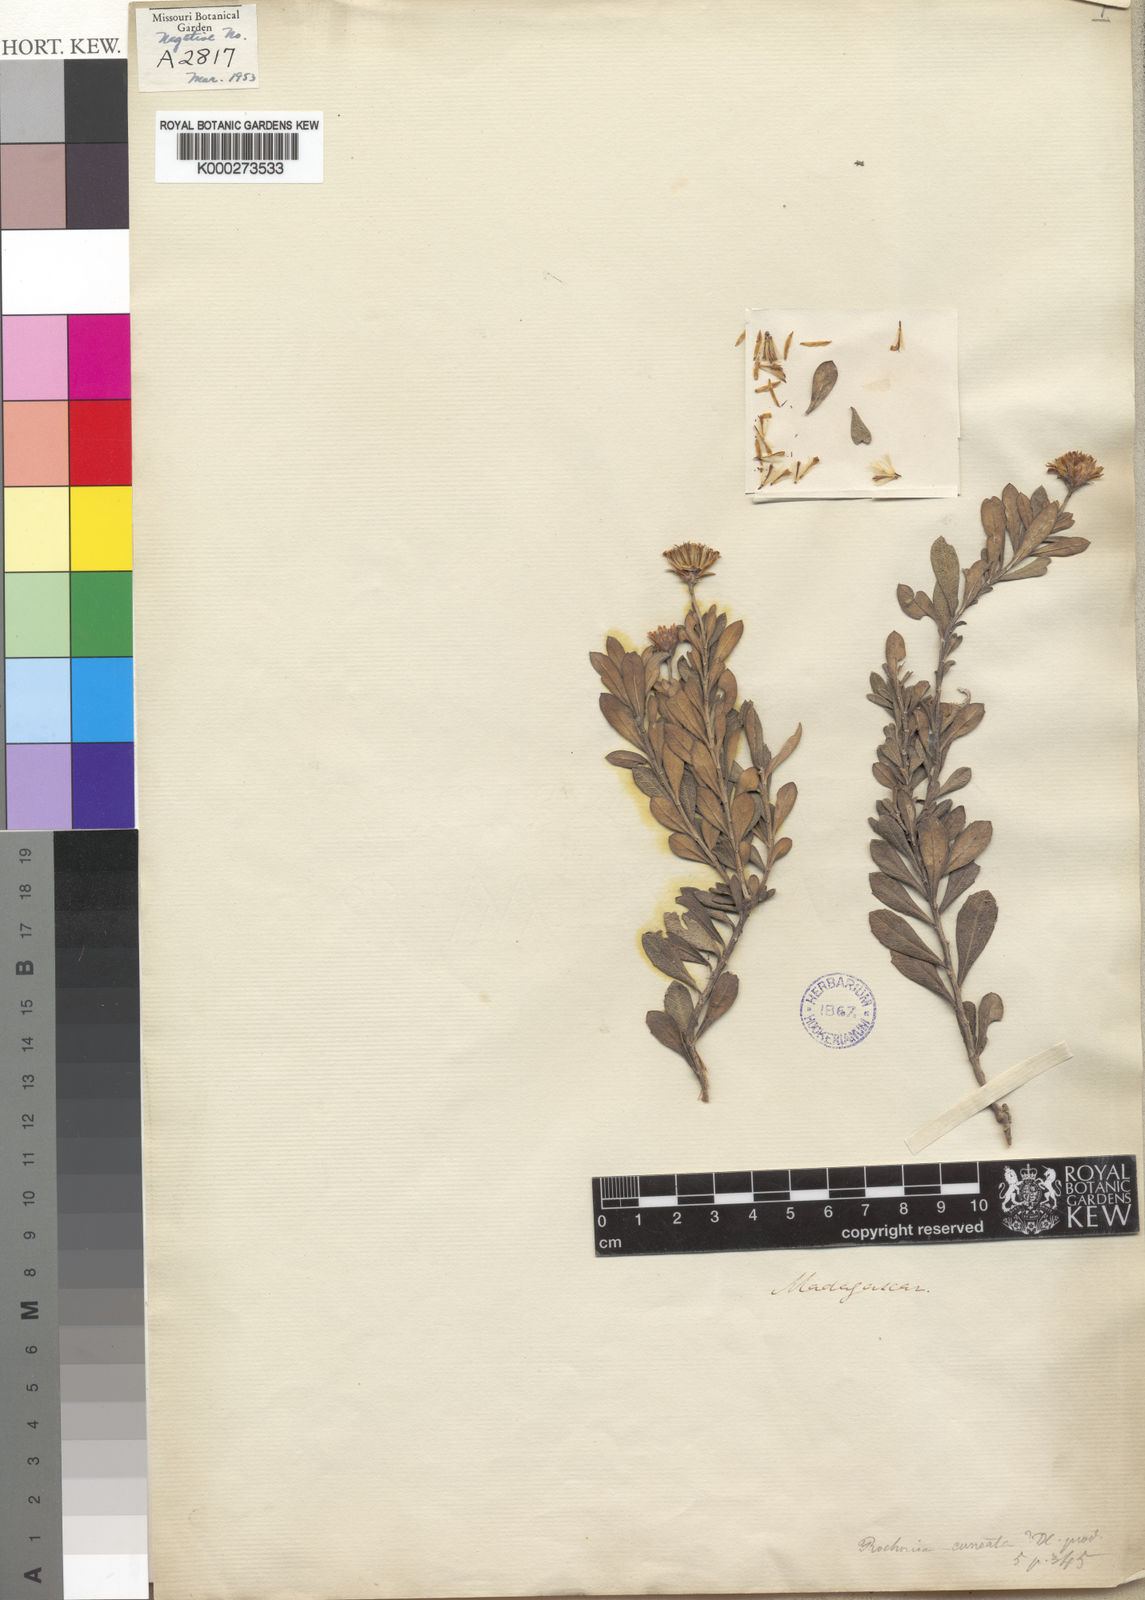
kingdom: Plantae
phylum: Tracheophyta
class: Magnoliopsida
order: Asterales
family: Asteraceae
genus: Rochonia
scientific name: Rochonia cuneata
